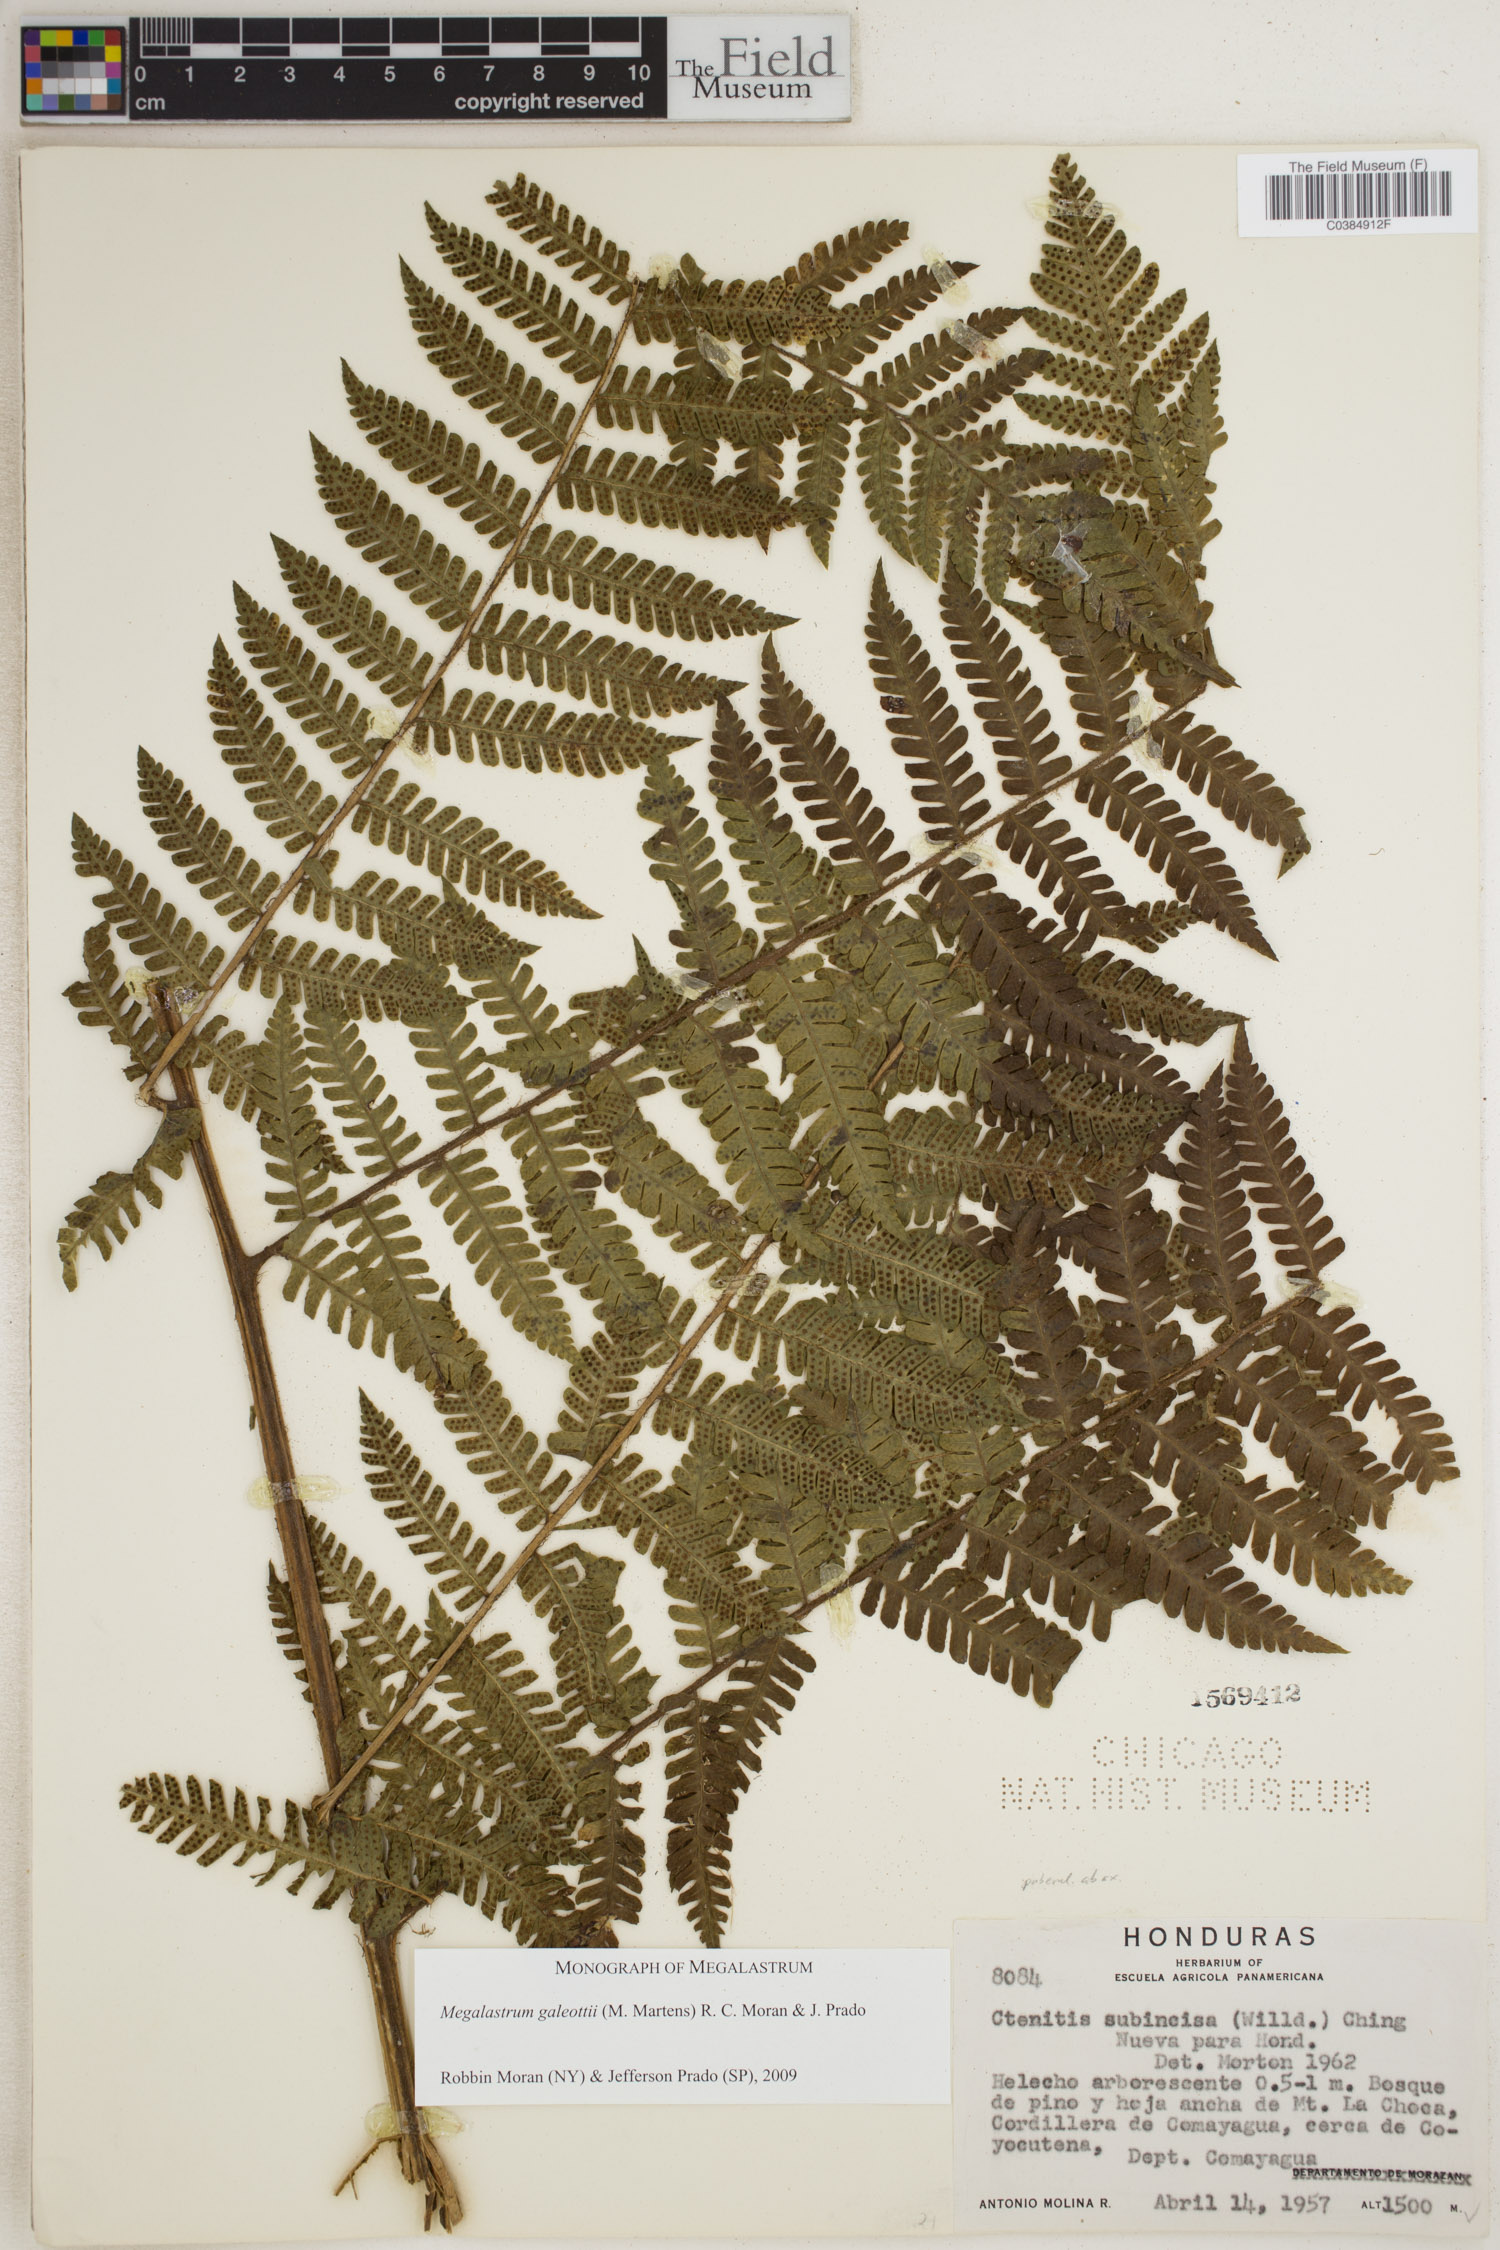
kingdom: Plantae
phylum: Tracheophyta
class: Polypodiopsida
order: Polypodiales
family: Dryopteridaceae
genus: Megalastrum
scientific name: Megalastrum galeottii
